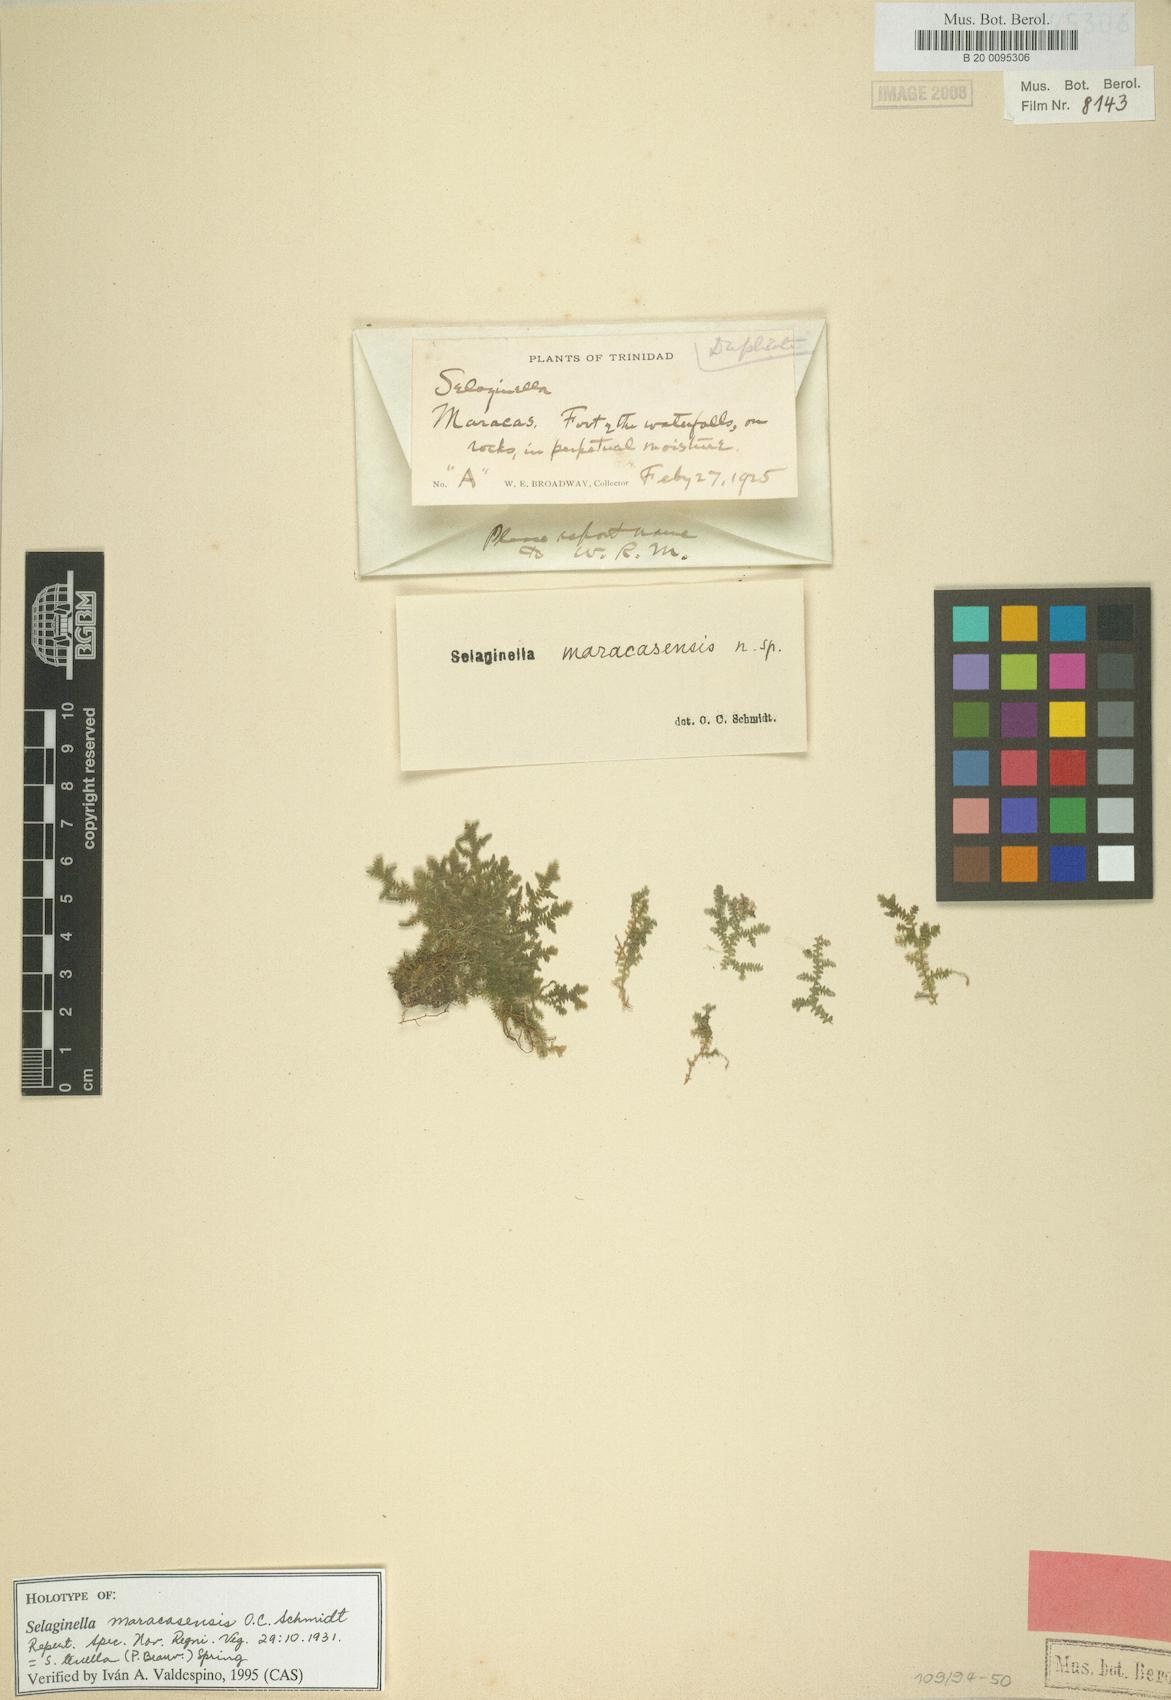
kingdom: Plantae
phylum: Tracheophyta
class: Lycopodiopsida
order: Selaginellales
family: Selaginellaceae
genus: Selaginella
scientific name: Selaginella tenella
